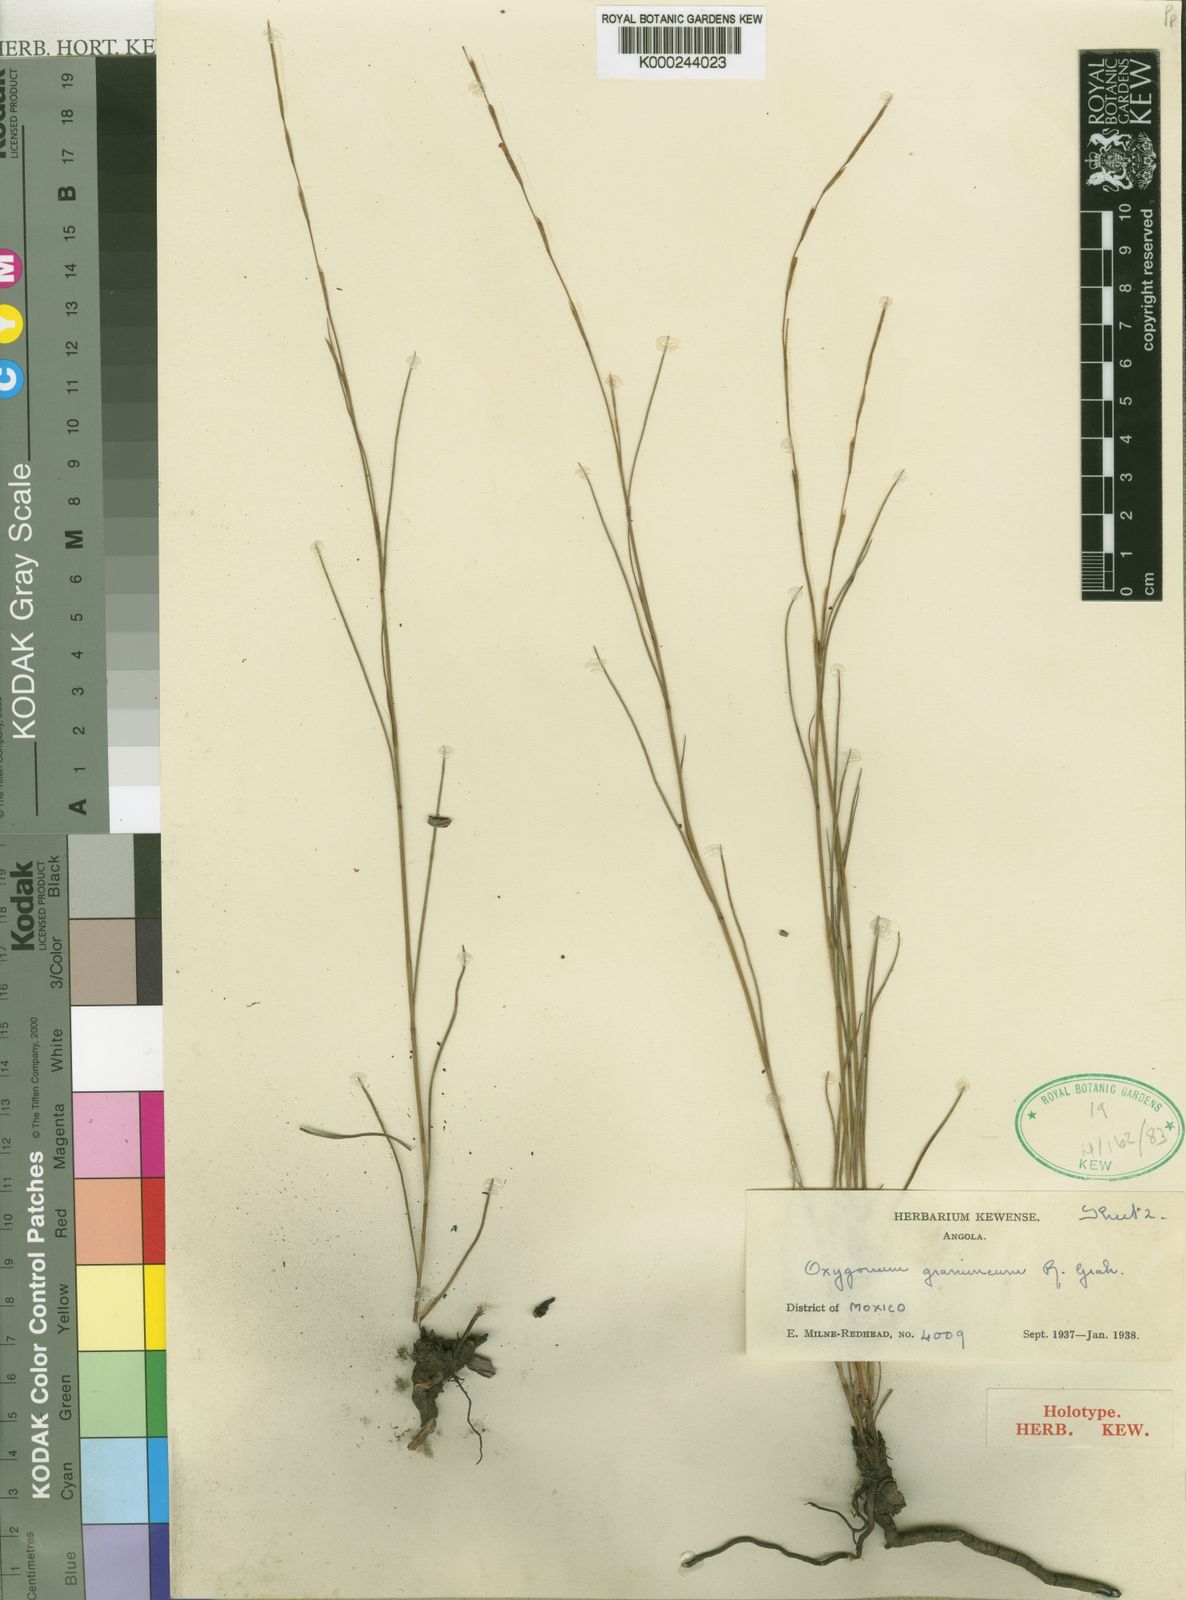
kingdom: Plantae
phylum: Tracheophyta
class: Magnoliopsida
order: Caryophyllales
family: Polygonaceae
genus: Oxygonum
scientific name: Oxygonum gramineum
